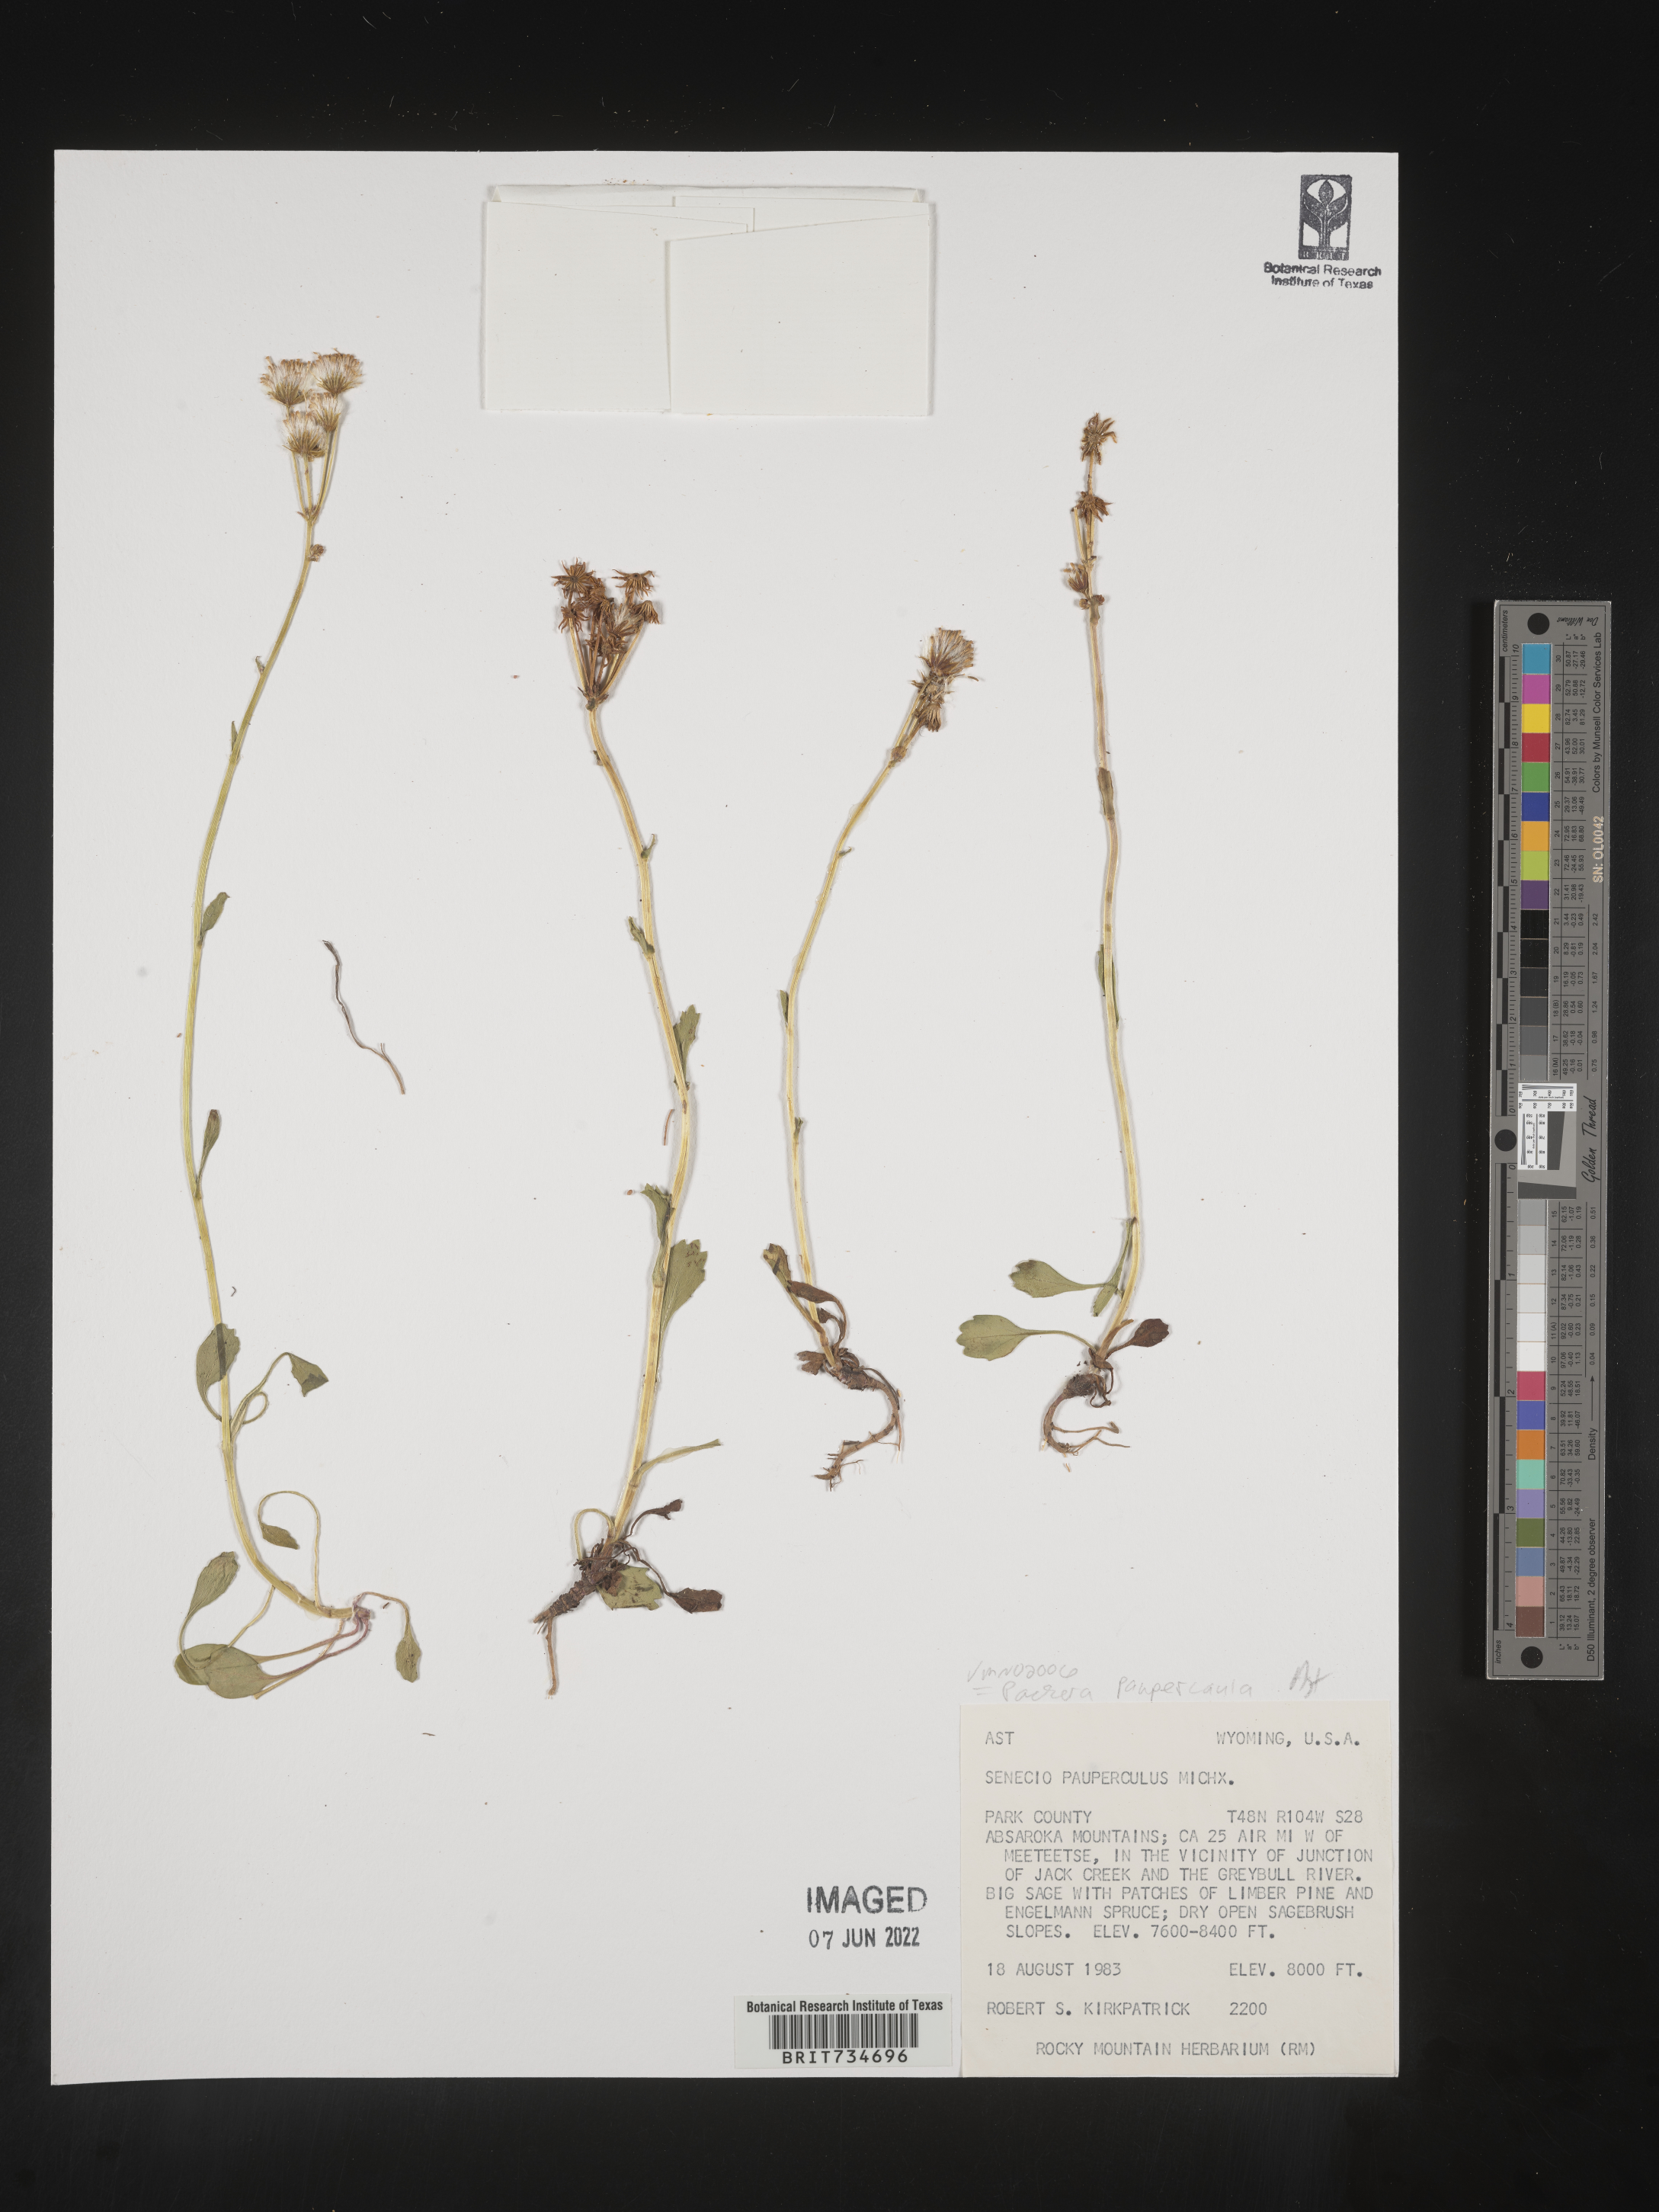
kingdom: Plantae
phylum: Tracheophyta
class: Magnoliopsida
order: Asterales
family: Asteraceae
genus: Packera
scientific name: Packera paupercula
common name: Balsam groundsel
